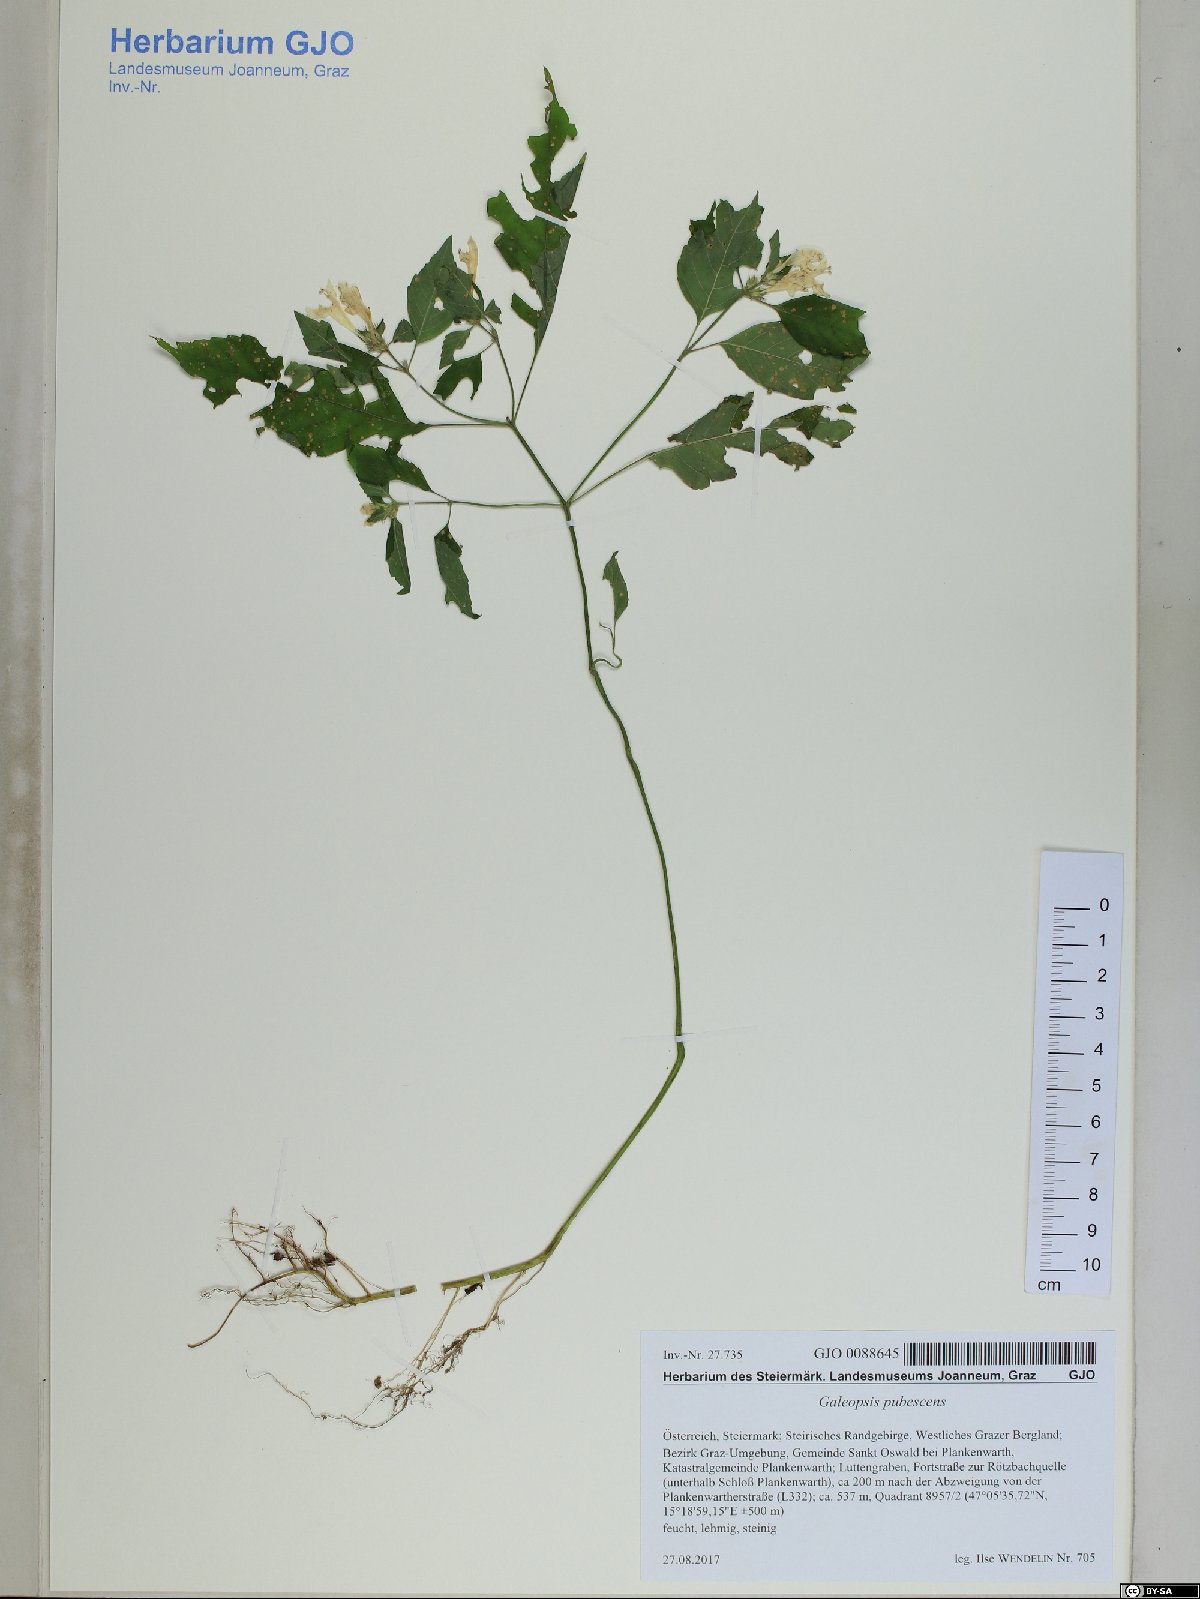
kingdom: Plantae
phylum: Tracheophyta
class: Magnoliopsida
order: Lamiales
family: Lamiaceae
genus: Galeopsis
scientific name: Galeopsis pubescens
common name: Downy hemp-nettle
